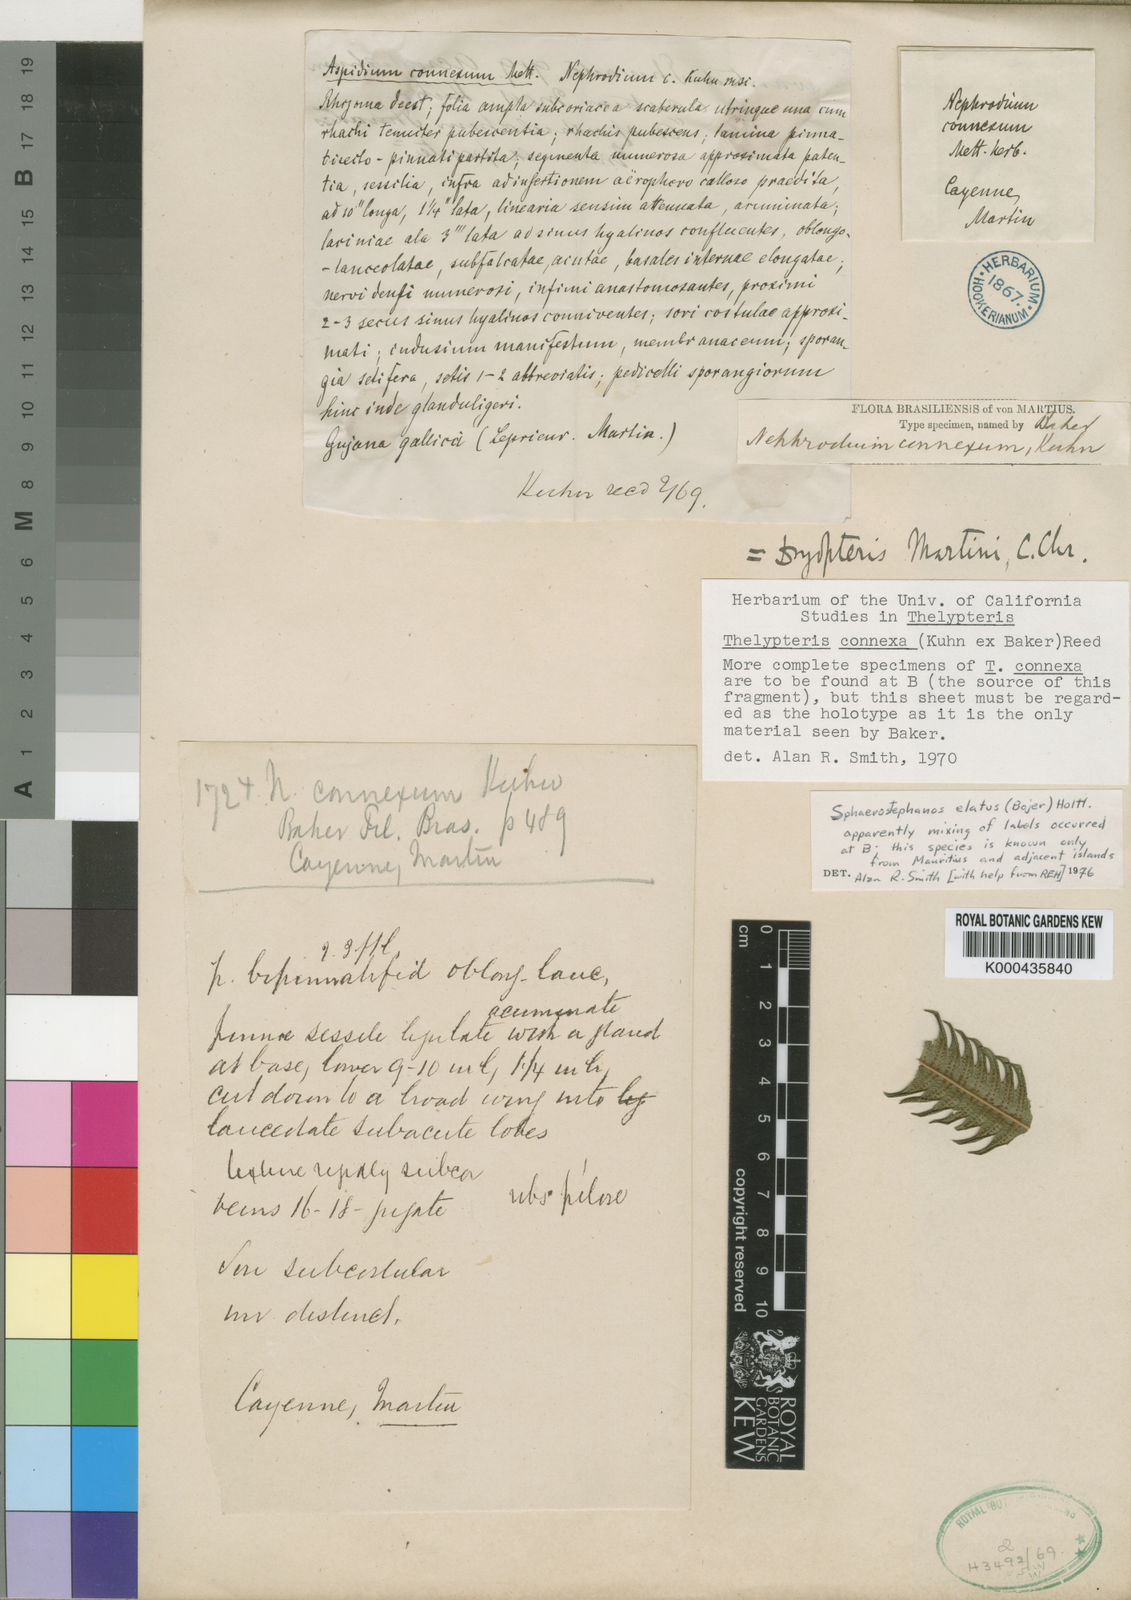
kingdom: Plantae
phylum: Tracheophyta
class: Polypodiopsida
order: Polypodiales
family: Thelypteridaceae
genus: Sphaerostephanos
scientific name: Sphaerostephanos elatus
